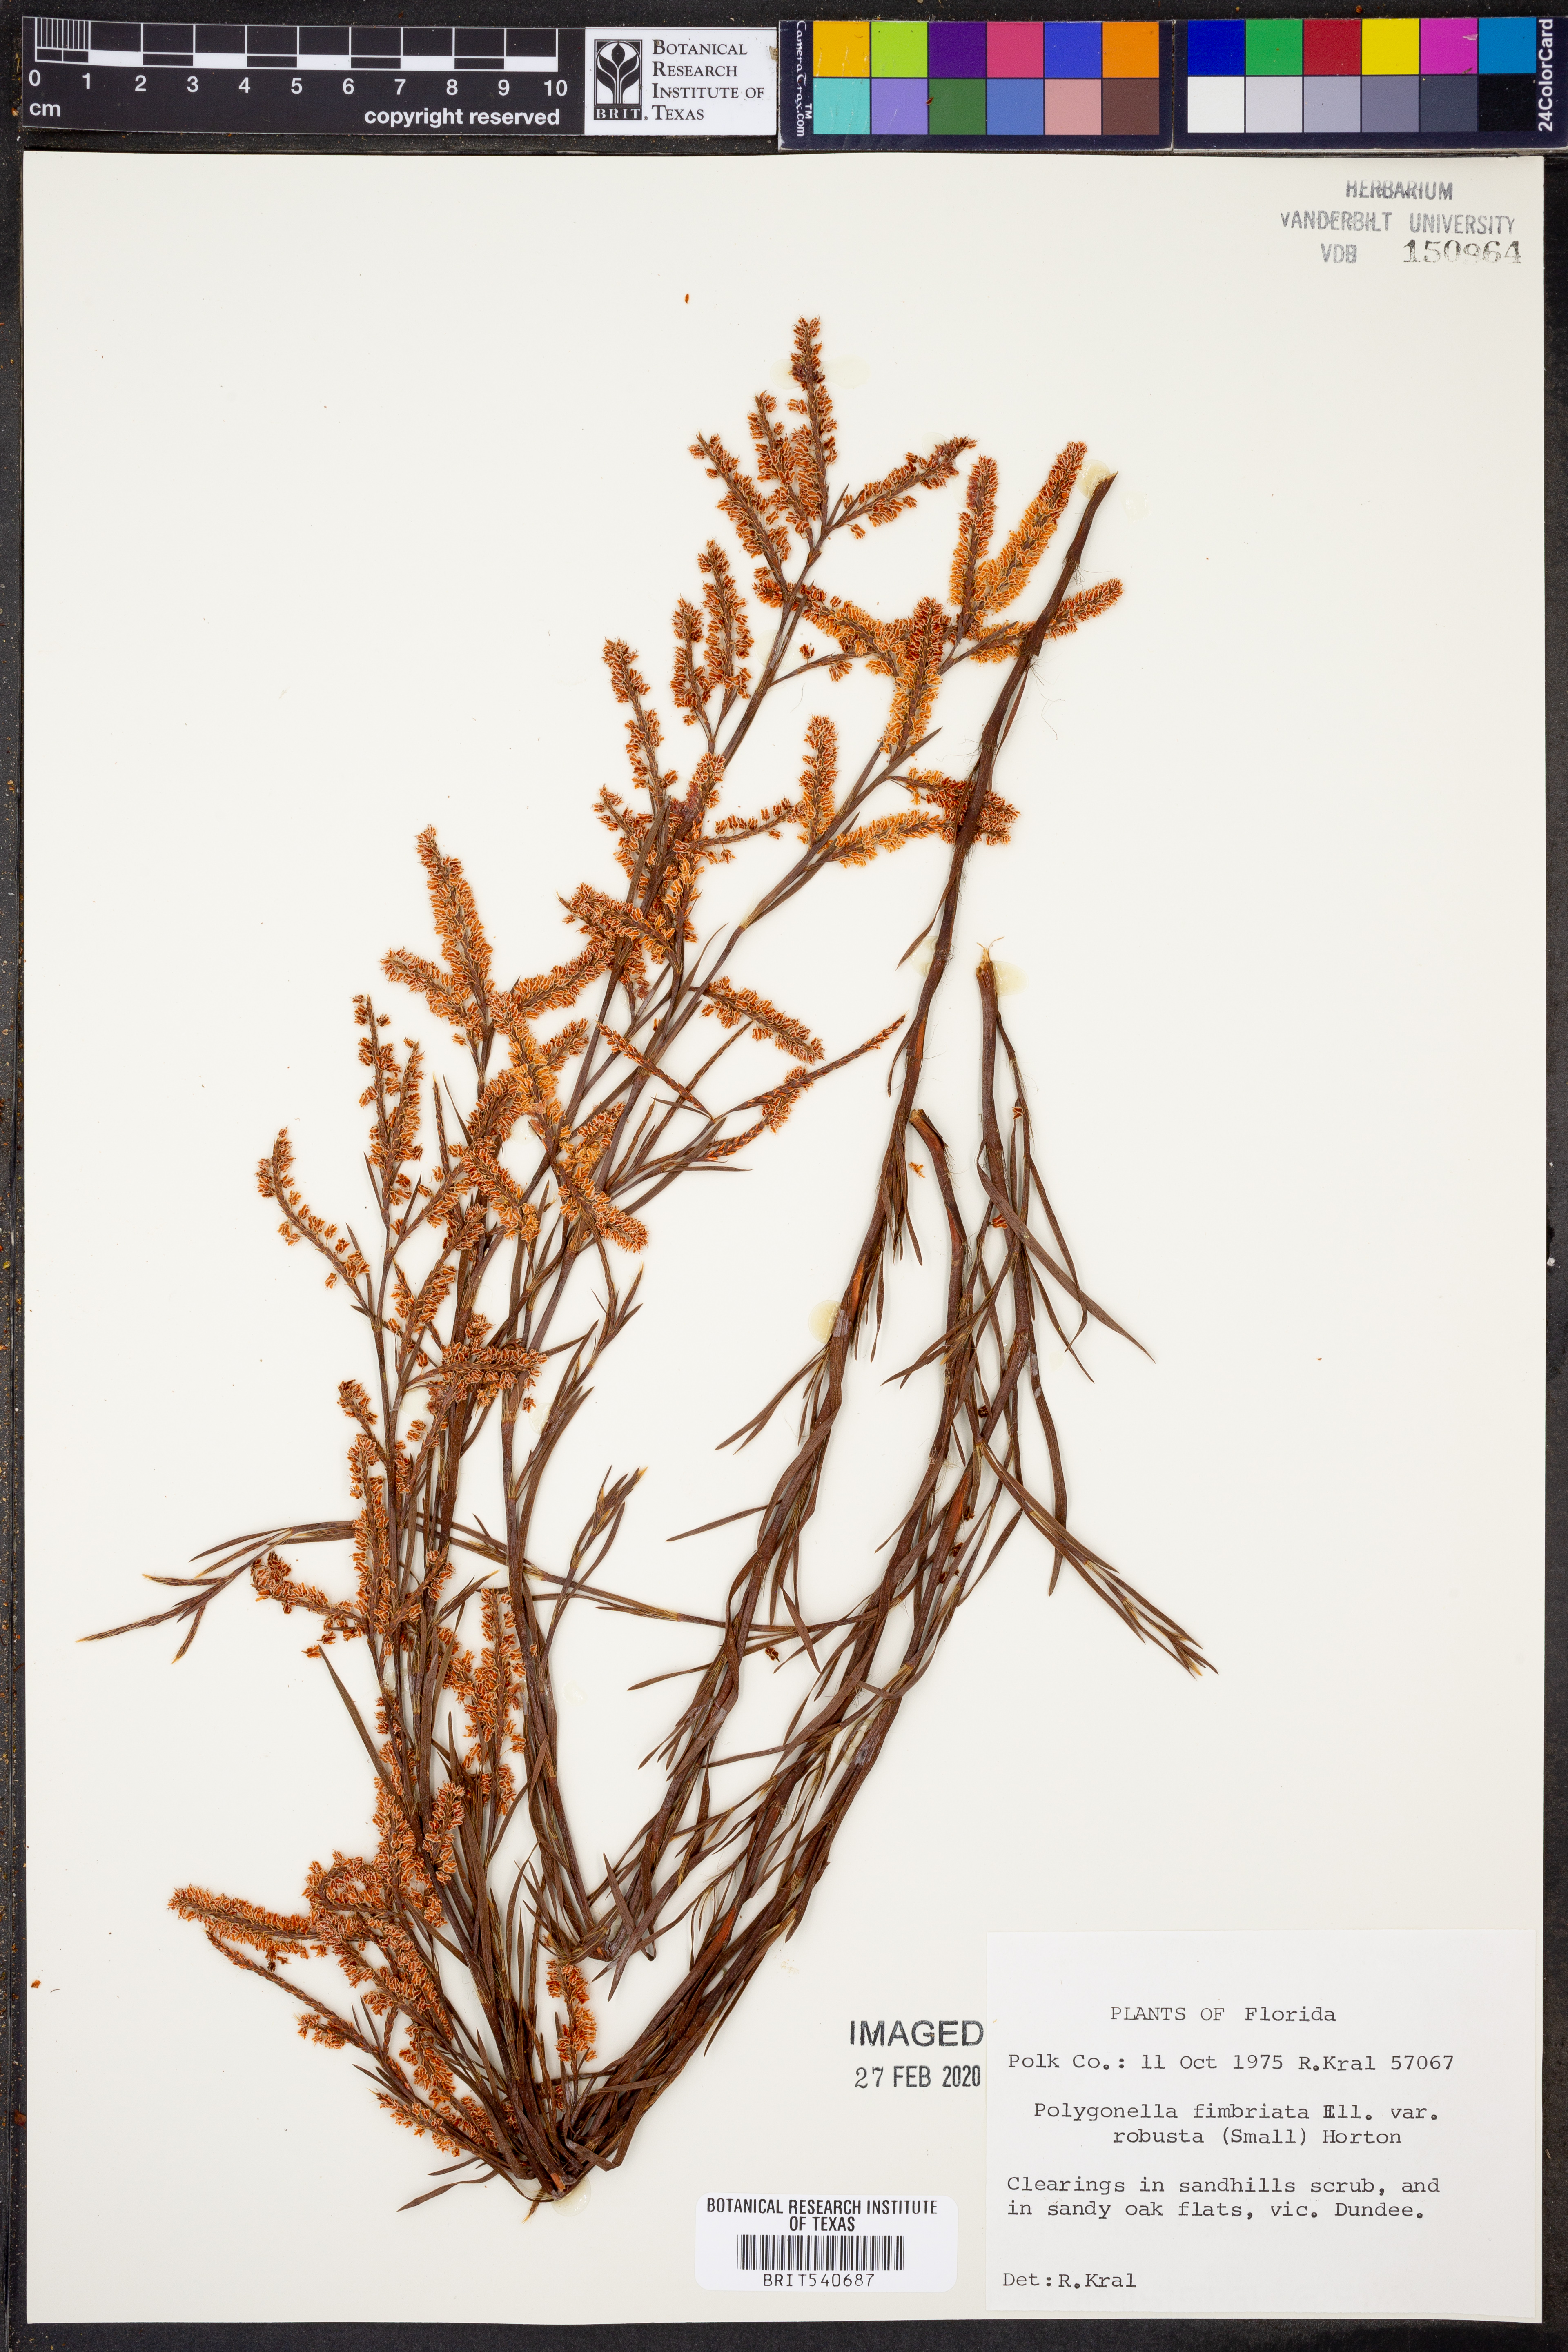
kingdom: Plantae
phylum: Tracheophyta
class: Magnoliopsida
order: Caryophyllales
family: Polygonaceae
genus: Polygonella
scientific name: Polygonella robusta
